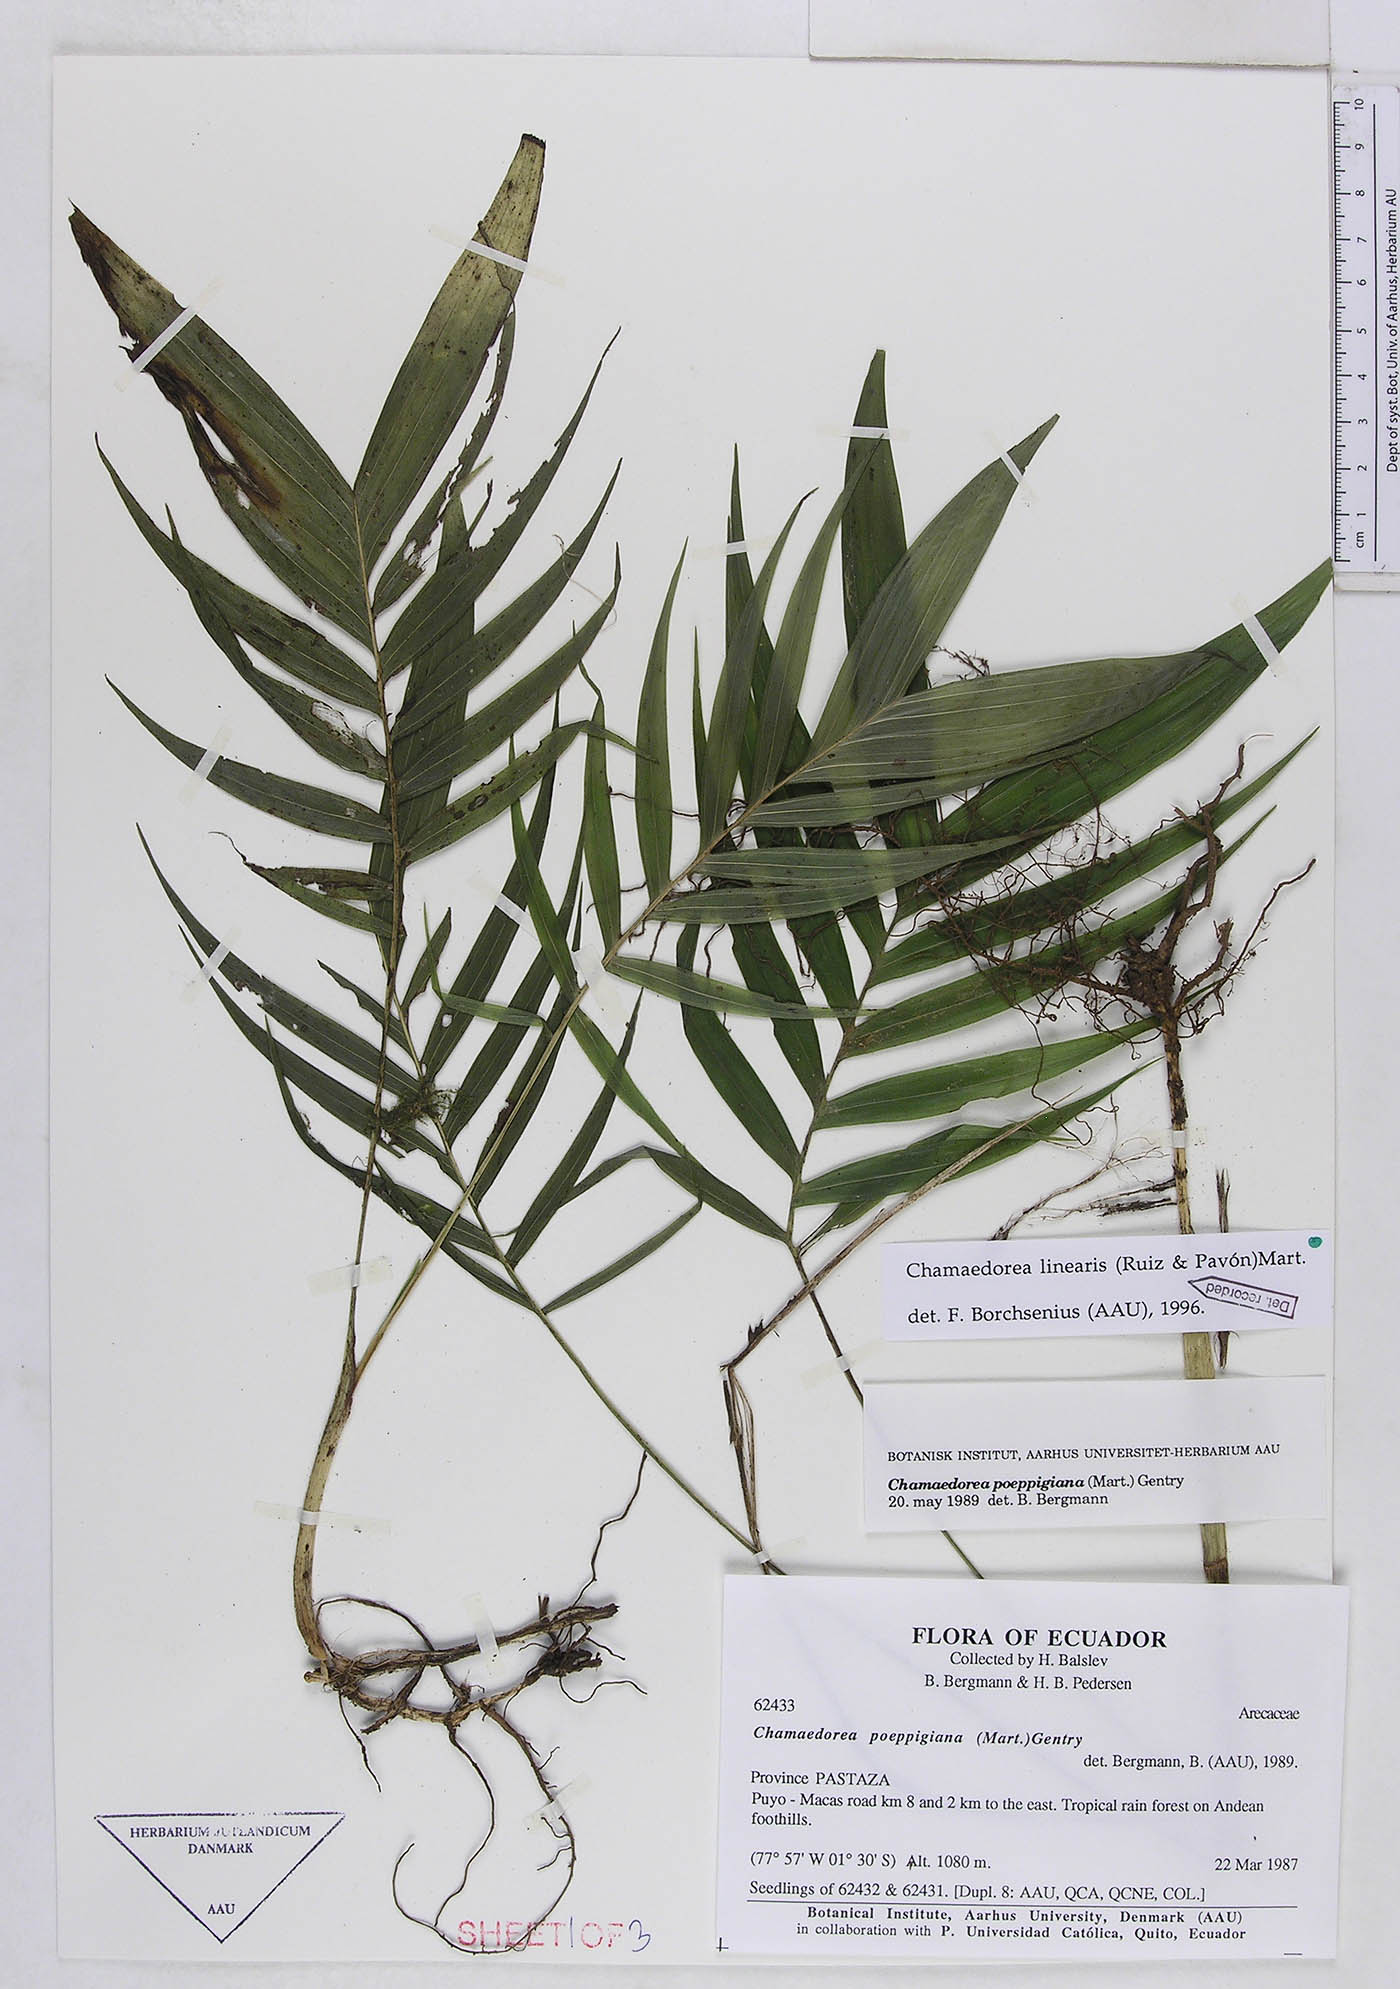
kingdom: Plantae
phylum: Tracheophyta
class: Liliopsida
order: Arecales
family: Arecaceae
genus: Chamaedorea
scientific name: Chamaedorea linearis
